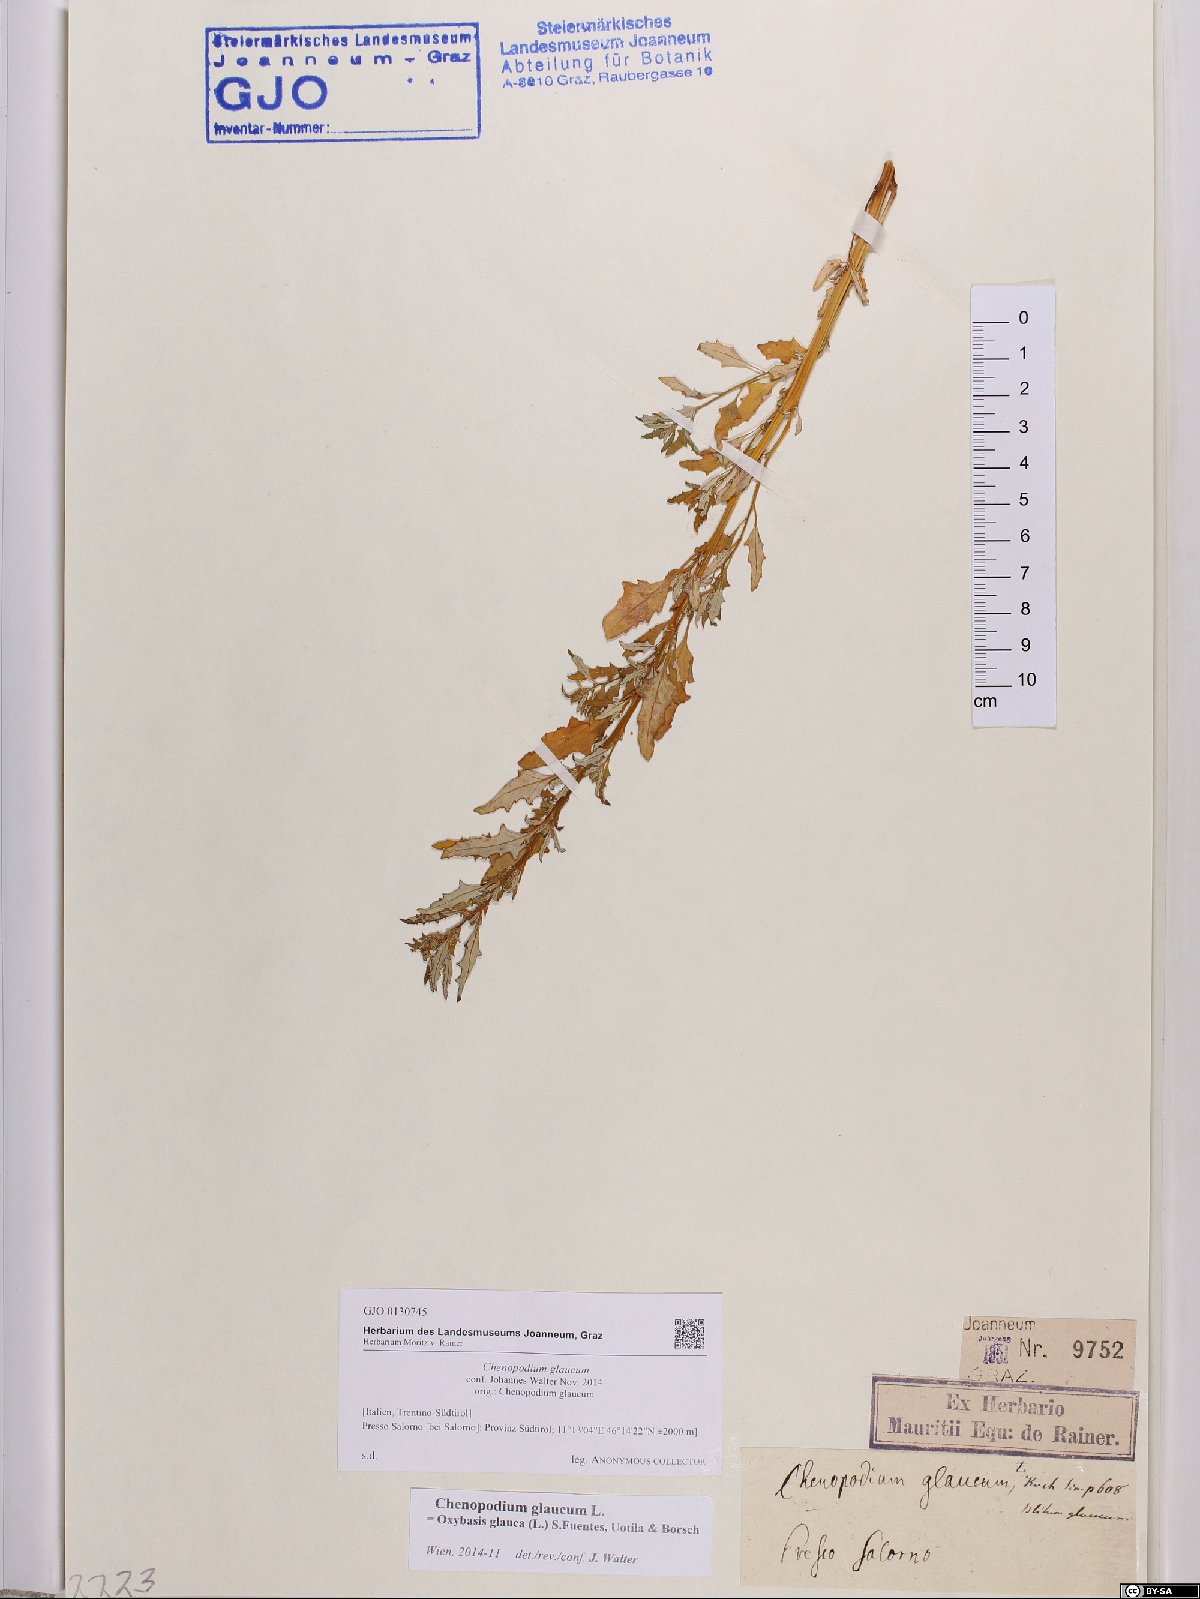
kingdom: Plantae
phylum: Tracheophyta
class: Magnoliopsida
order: Caryophyllales
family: Amaranthaceae
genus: Oxybasis
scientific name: Oxybasis glauca
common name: Glaucous goosefoot
